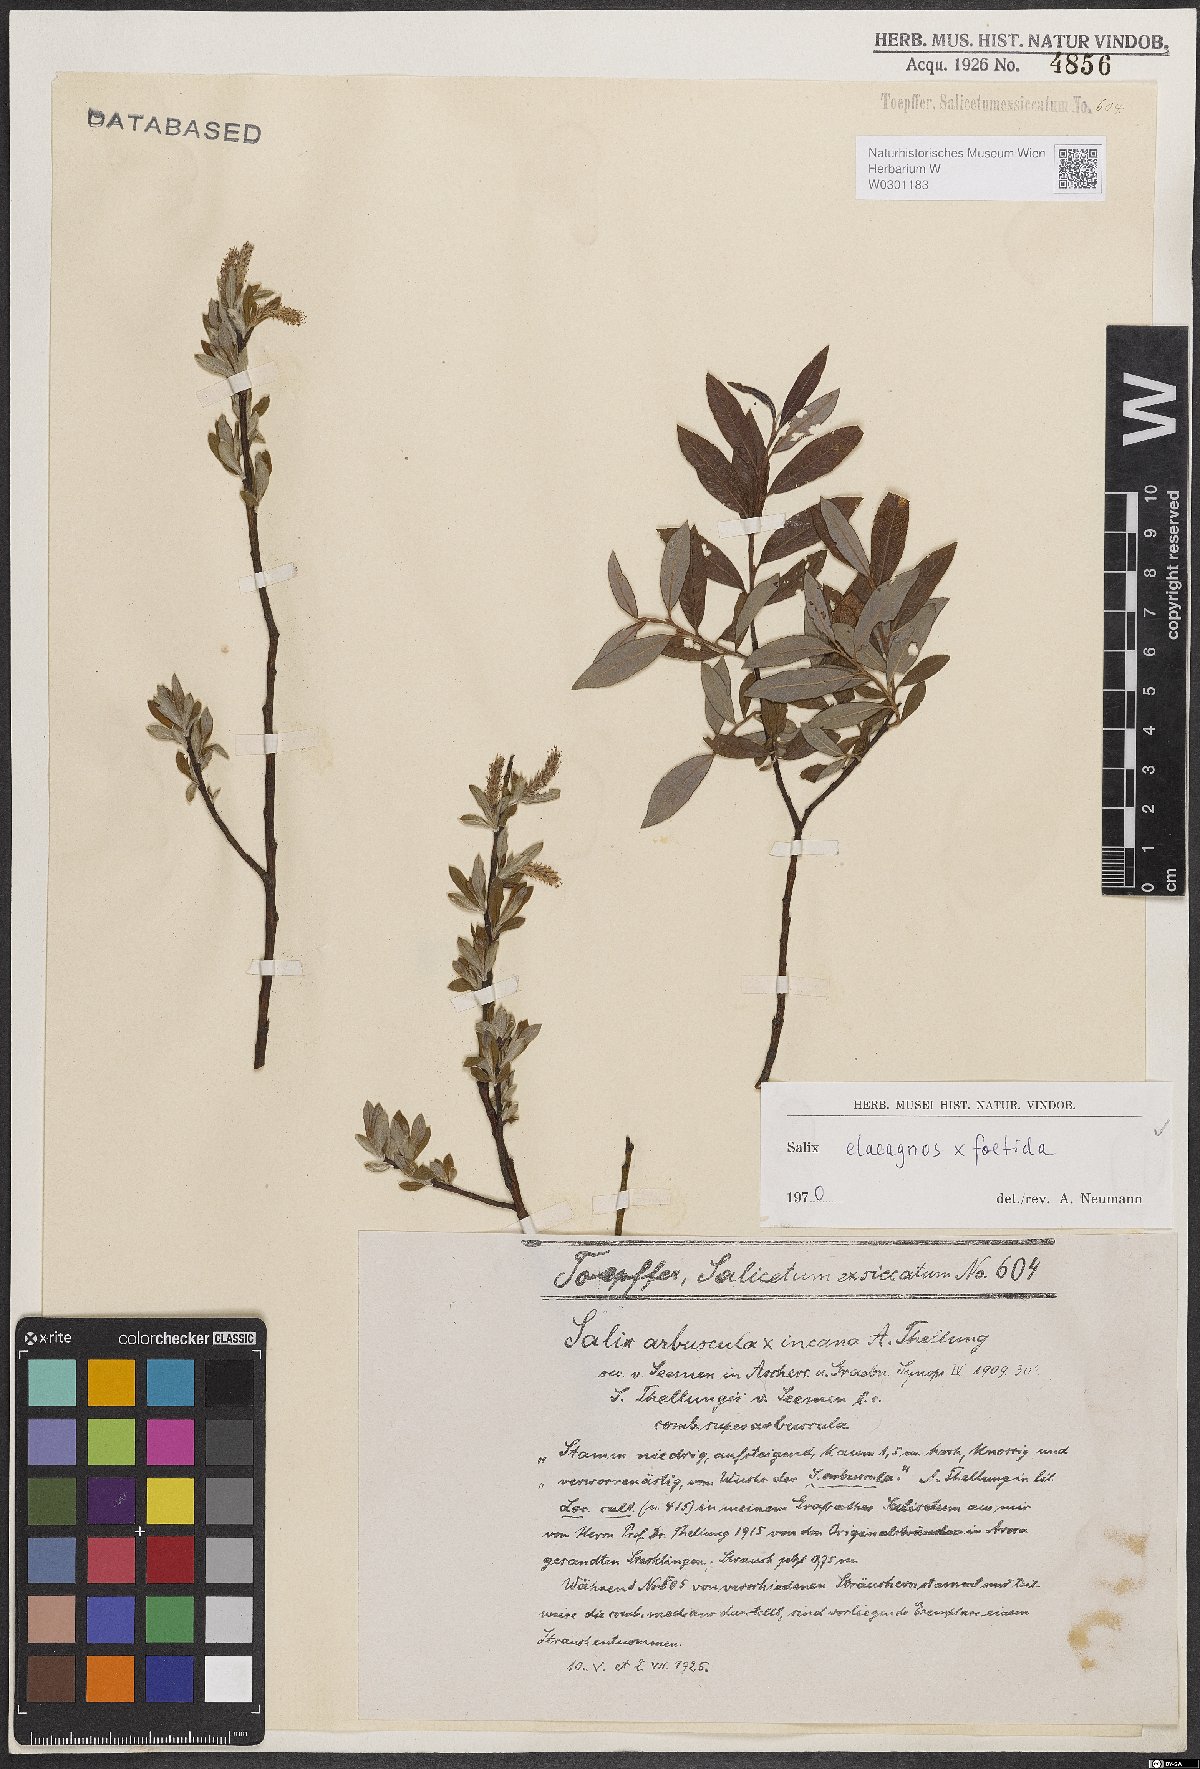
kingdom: Plantae
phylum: Tracheophyta
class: Magnoliopsida
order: Malpighiales
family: Salicaceae
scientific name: Salicaceae
